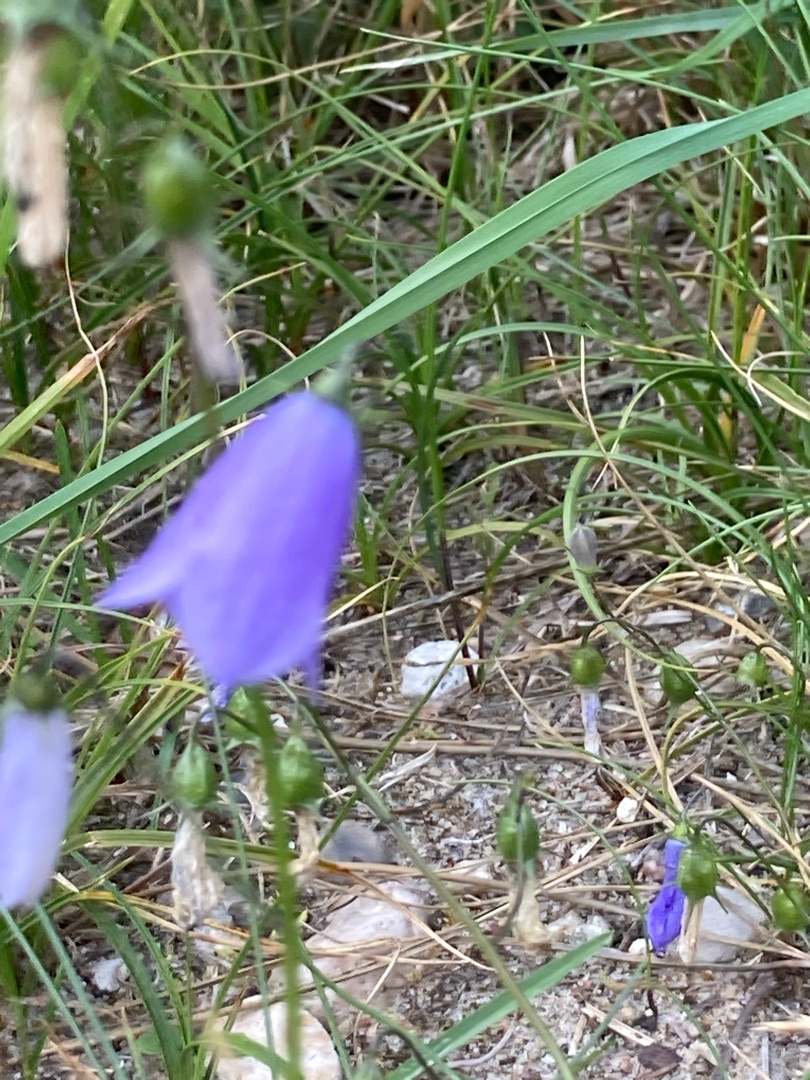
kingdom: Plantae
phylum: Tracheophyta
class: Magnoliopsida
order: Asterales
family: Campanulaceae
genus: Campanula
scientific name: Campanula rotundifolia
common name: Liden klokke
